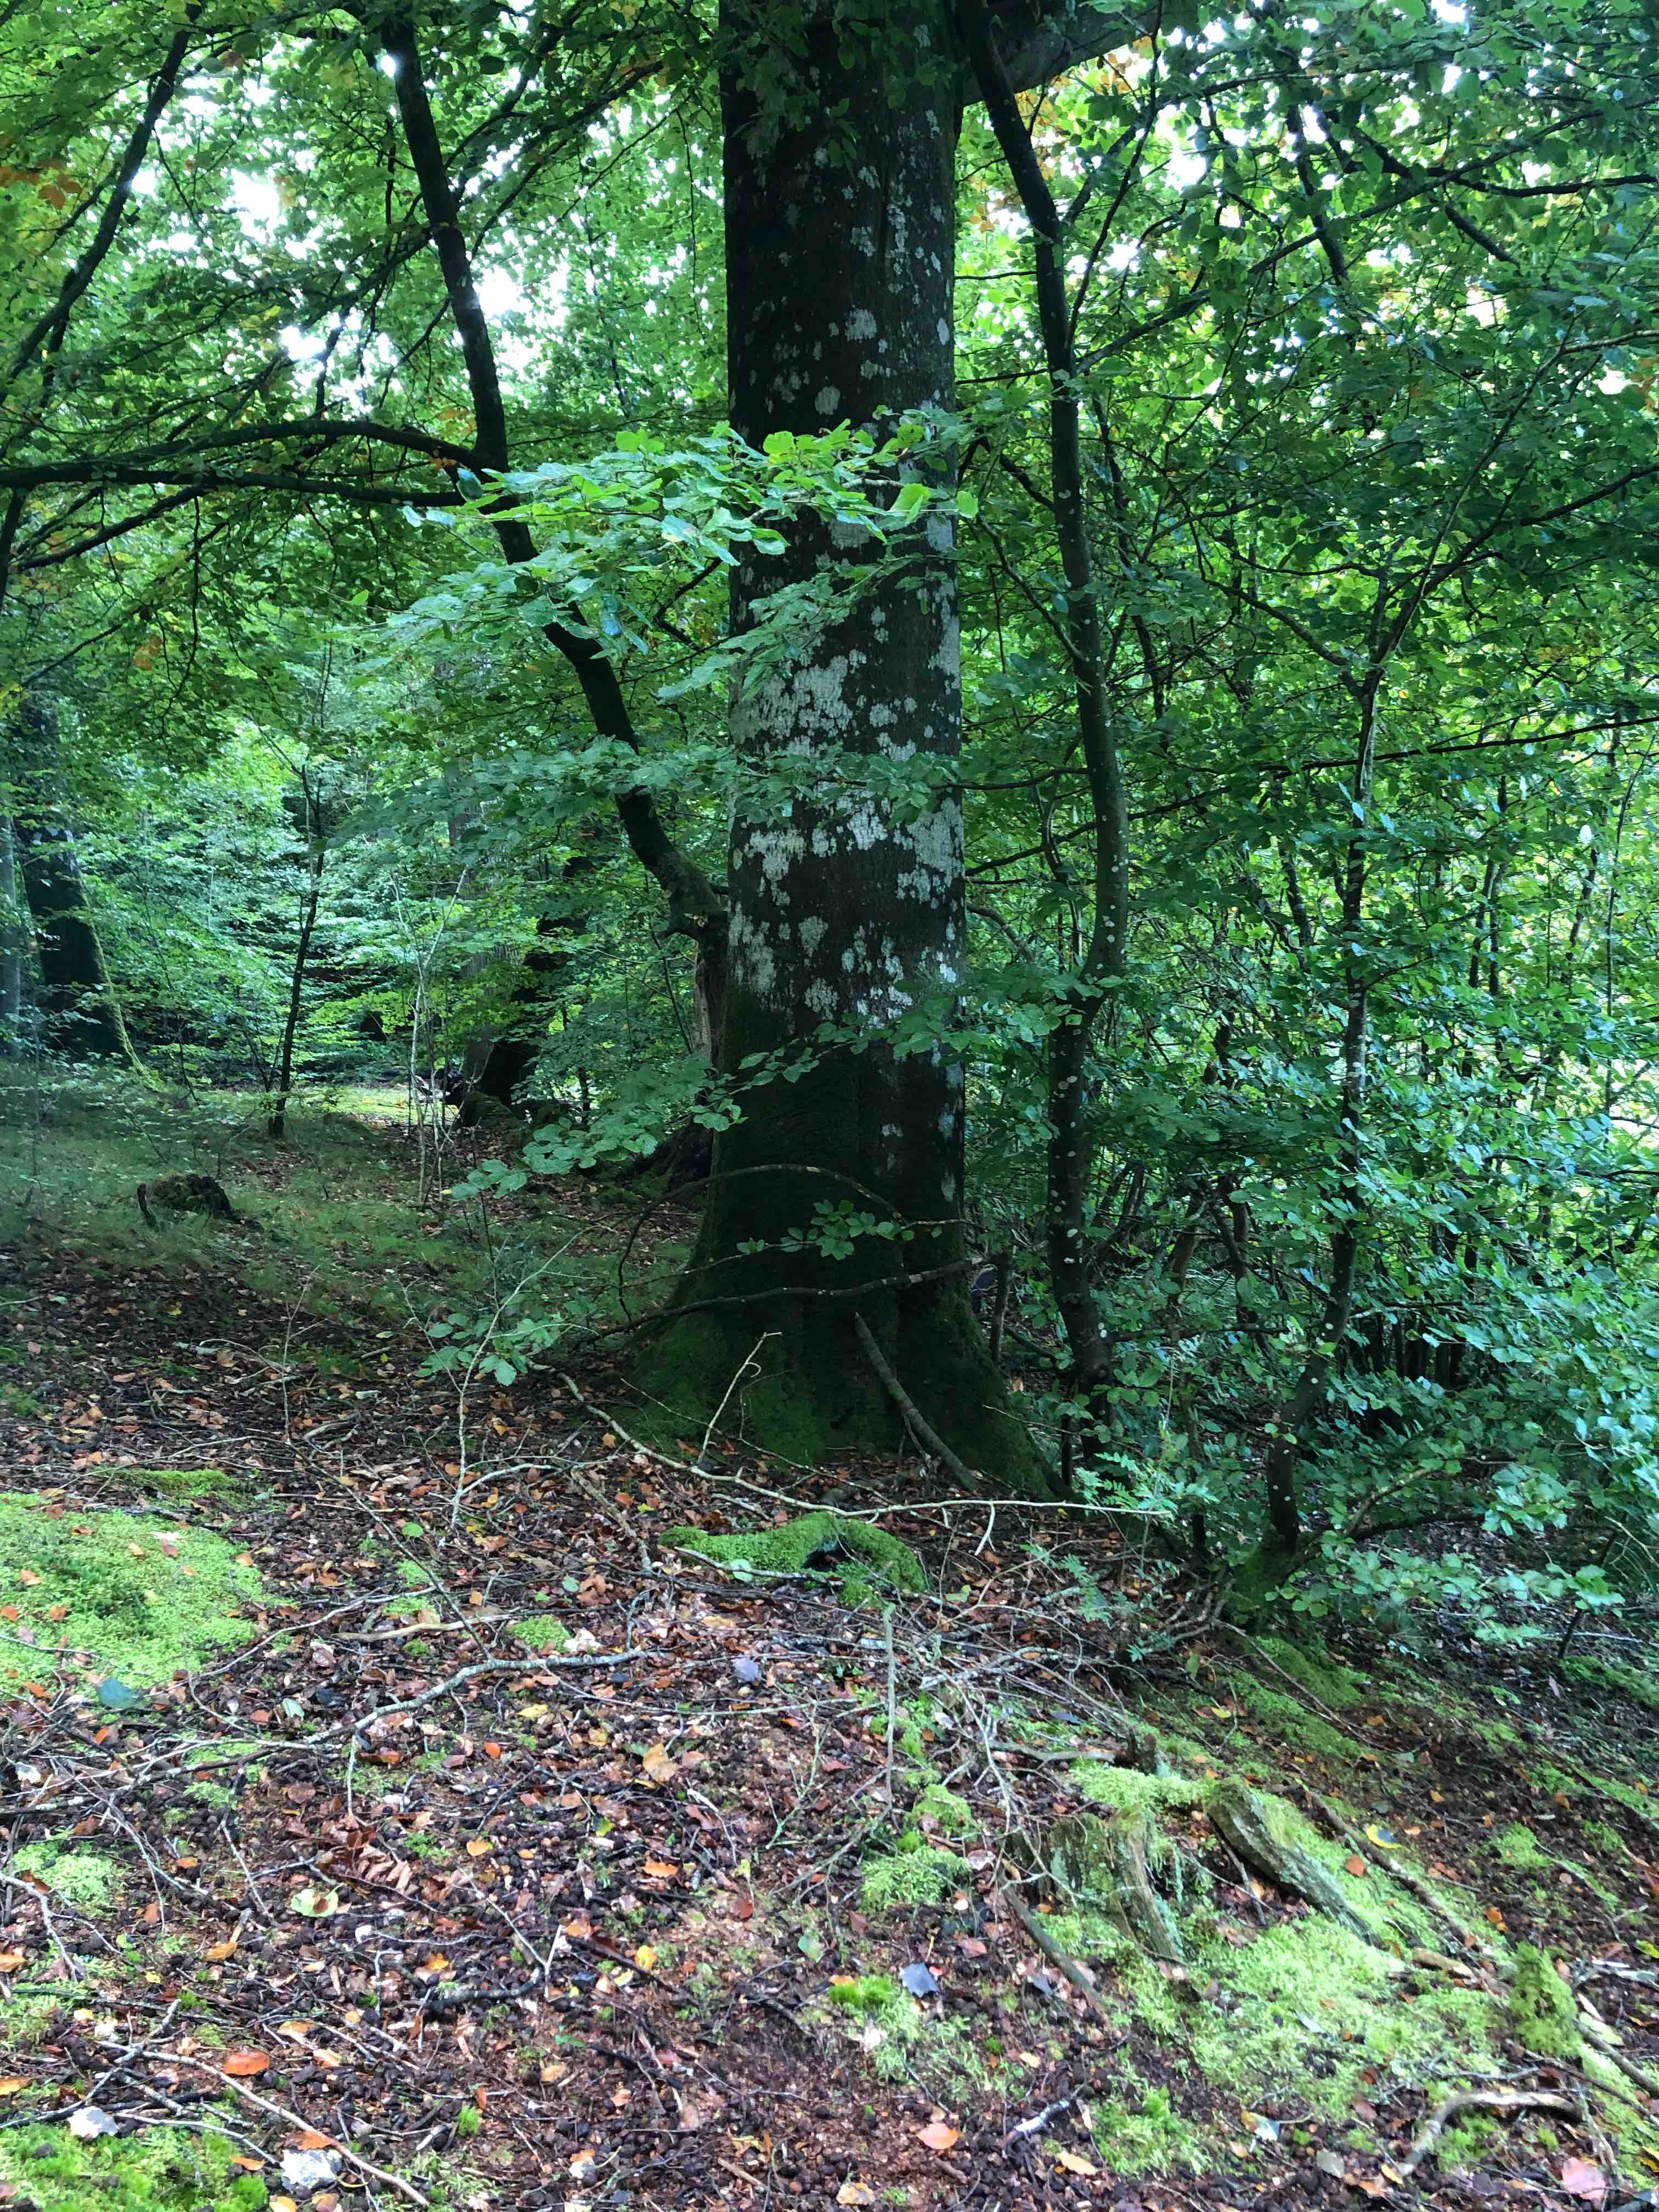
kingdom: Fungi
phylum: Basidiomycota
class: Agaricomycetes
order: Agaricales
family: Cortinariaceae
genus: Cortinarius
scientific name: Cortinarius
